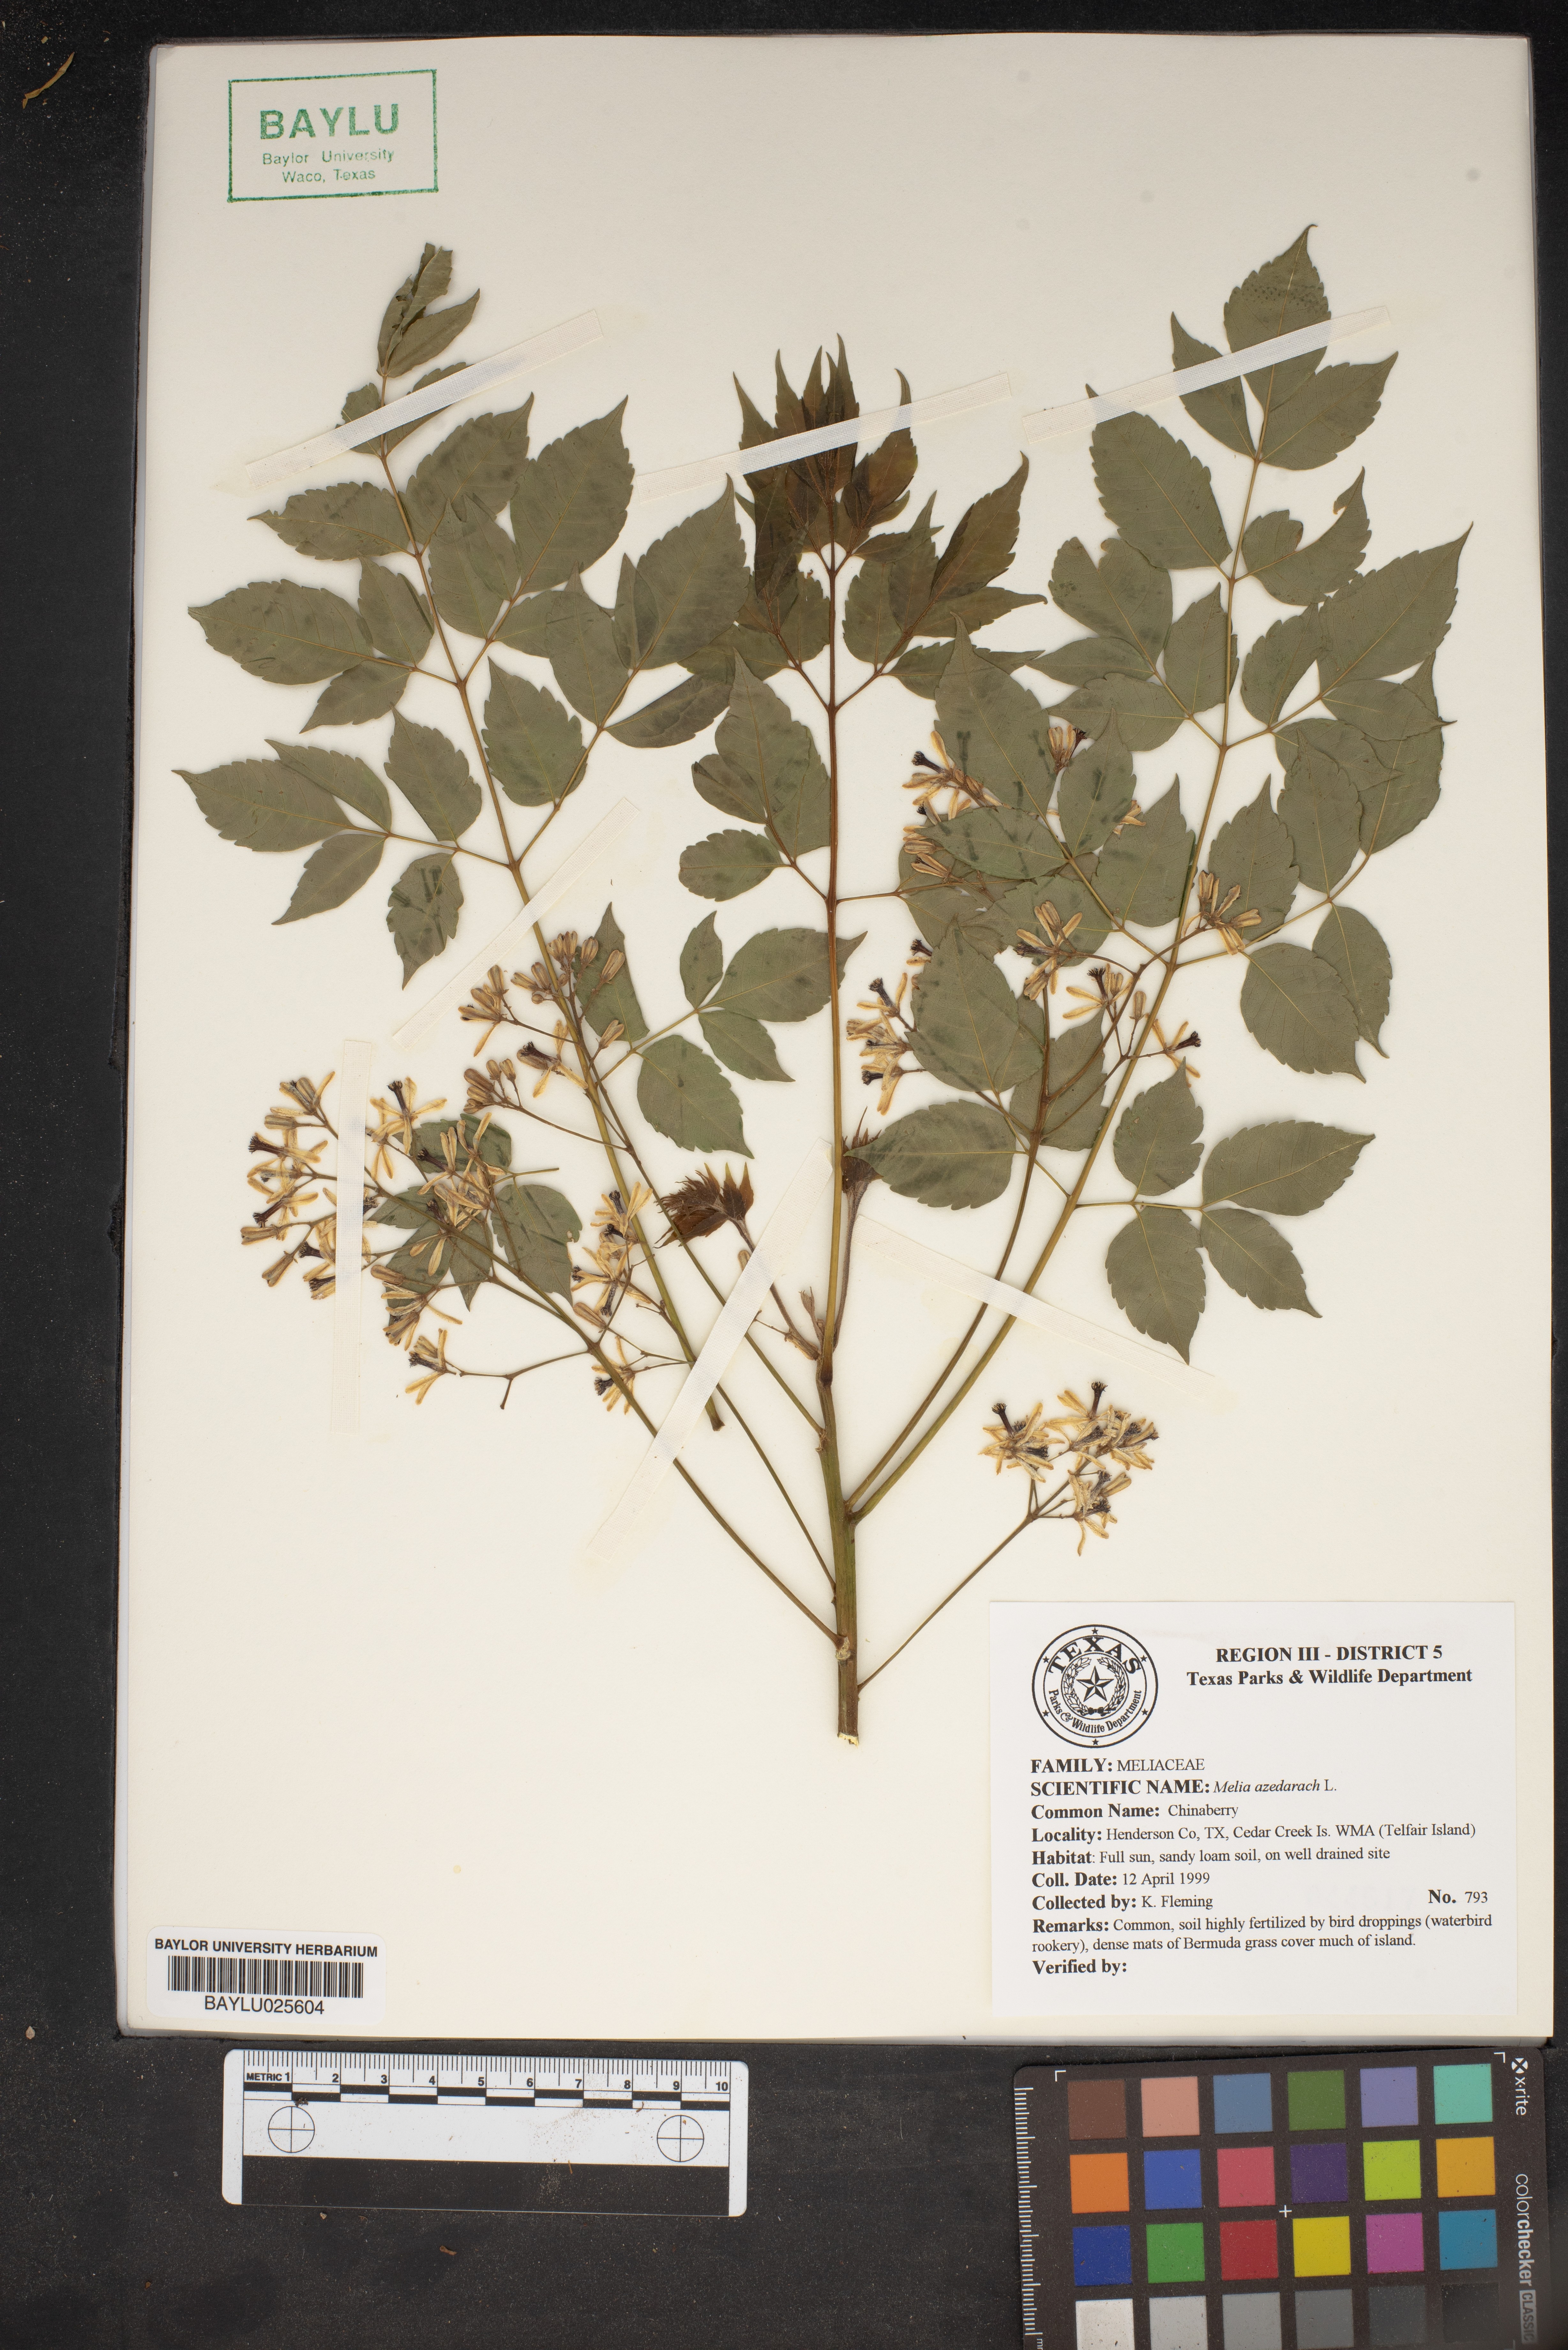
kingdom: Plantae
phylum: Tracheophyta
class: Magnoliopsida
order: Sapindales
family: Meliaceae
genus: Melia
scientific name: Melia azedarach
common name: Chinaberrytree
